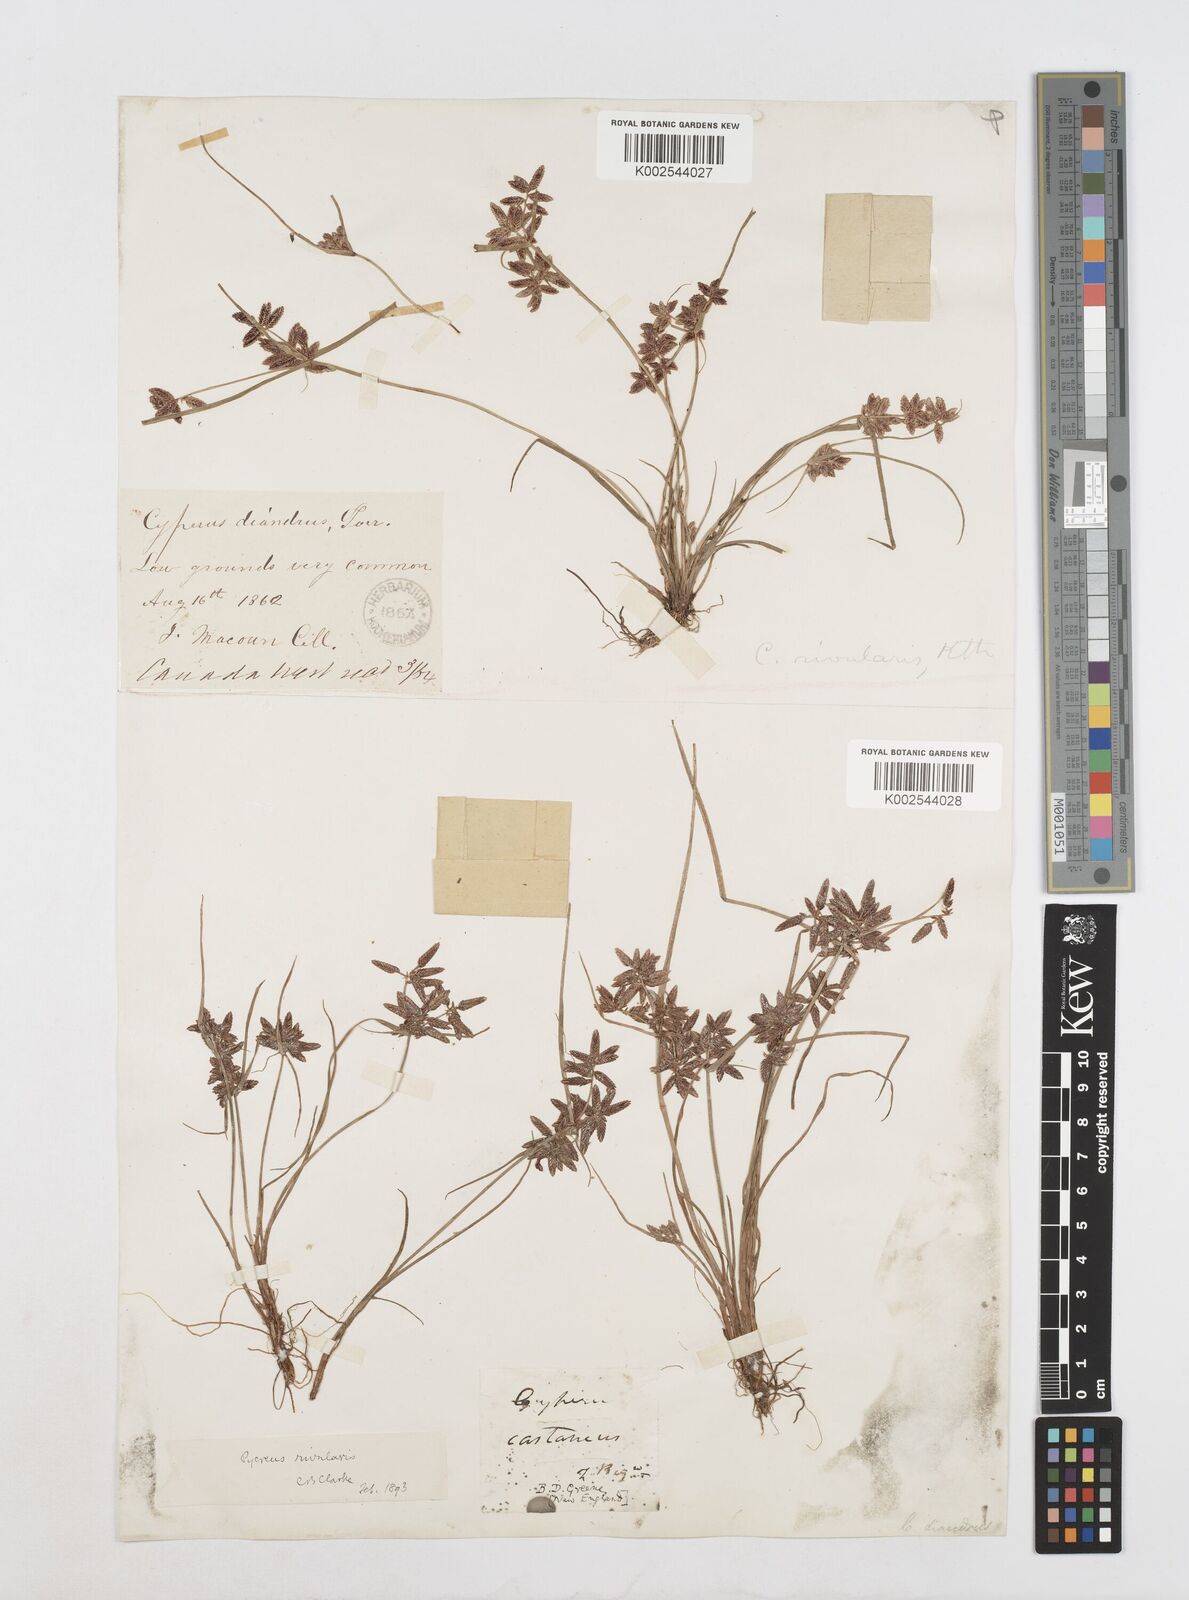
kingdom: Plantae
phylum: Tracheophyta
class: Liliopsida
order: Poales
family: Cyperaceae
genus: Cyperus
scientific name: Cyperus bipartitus
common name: Brook flatsedge
